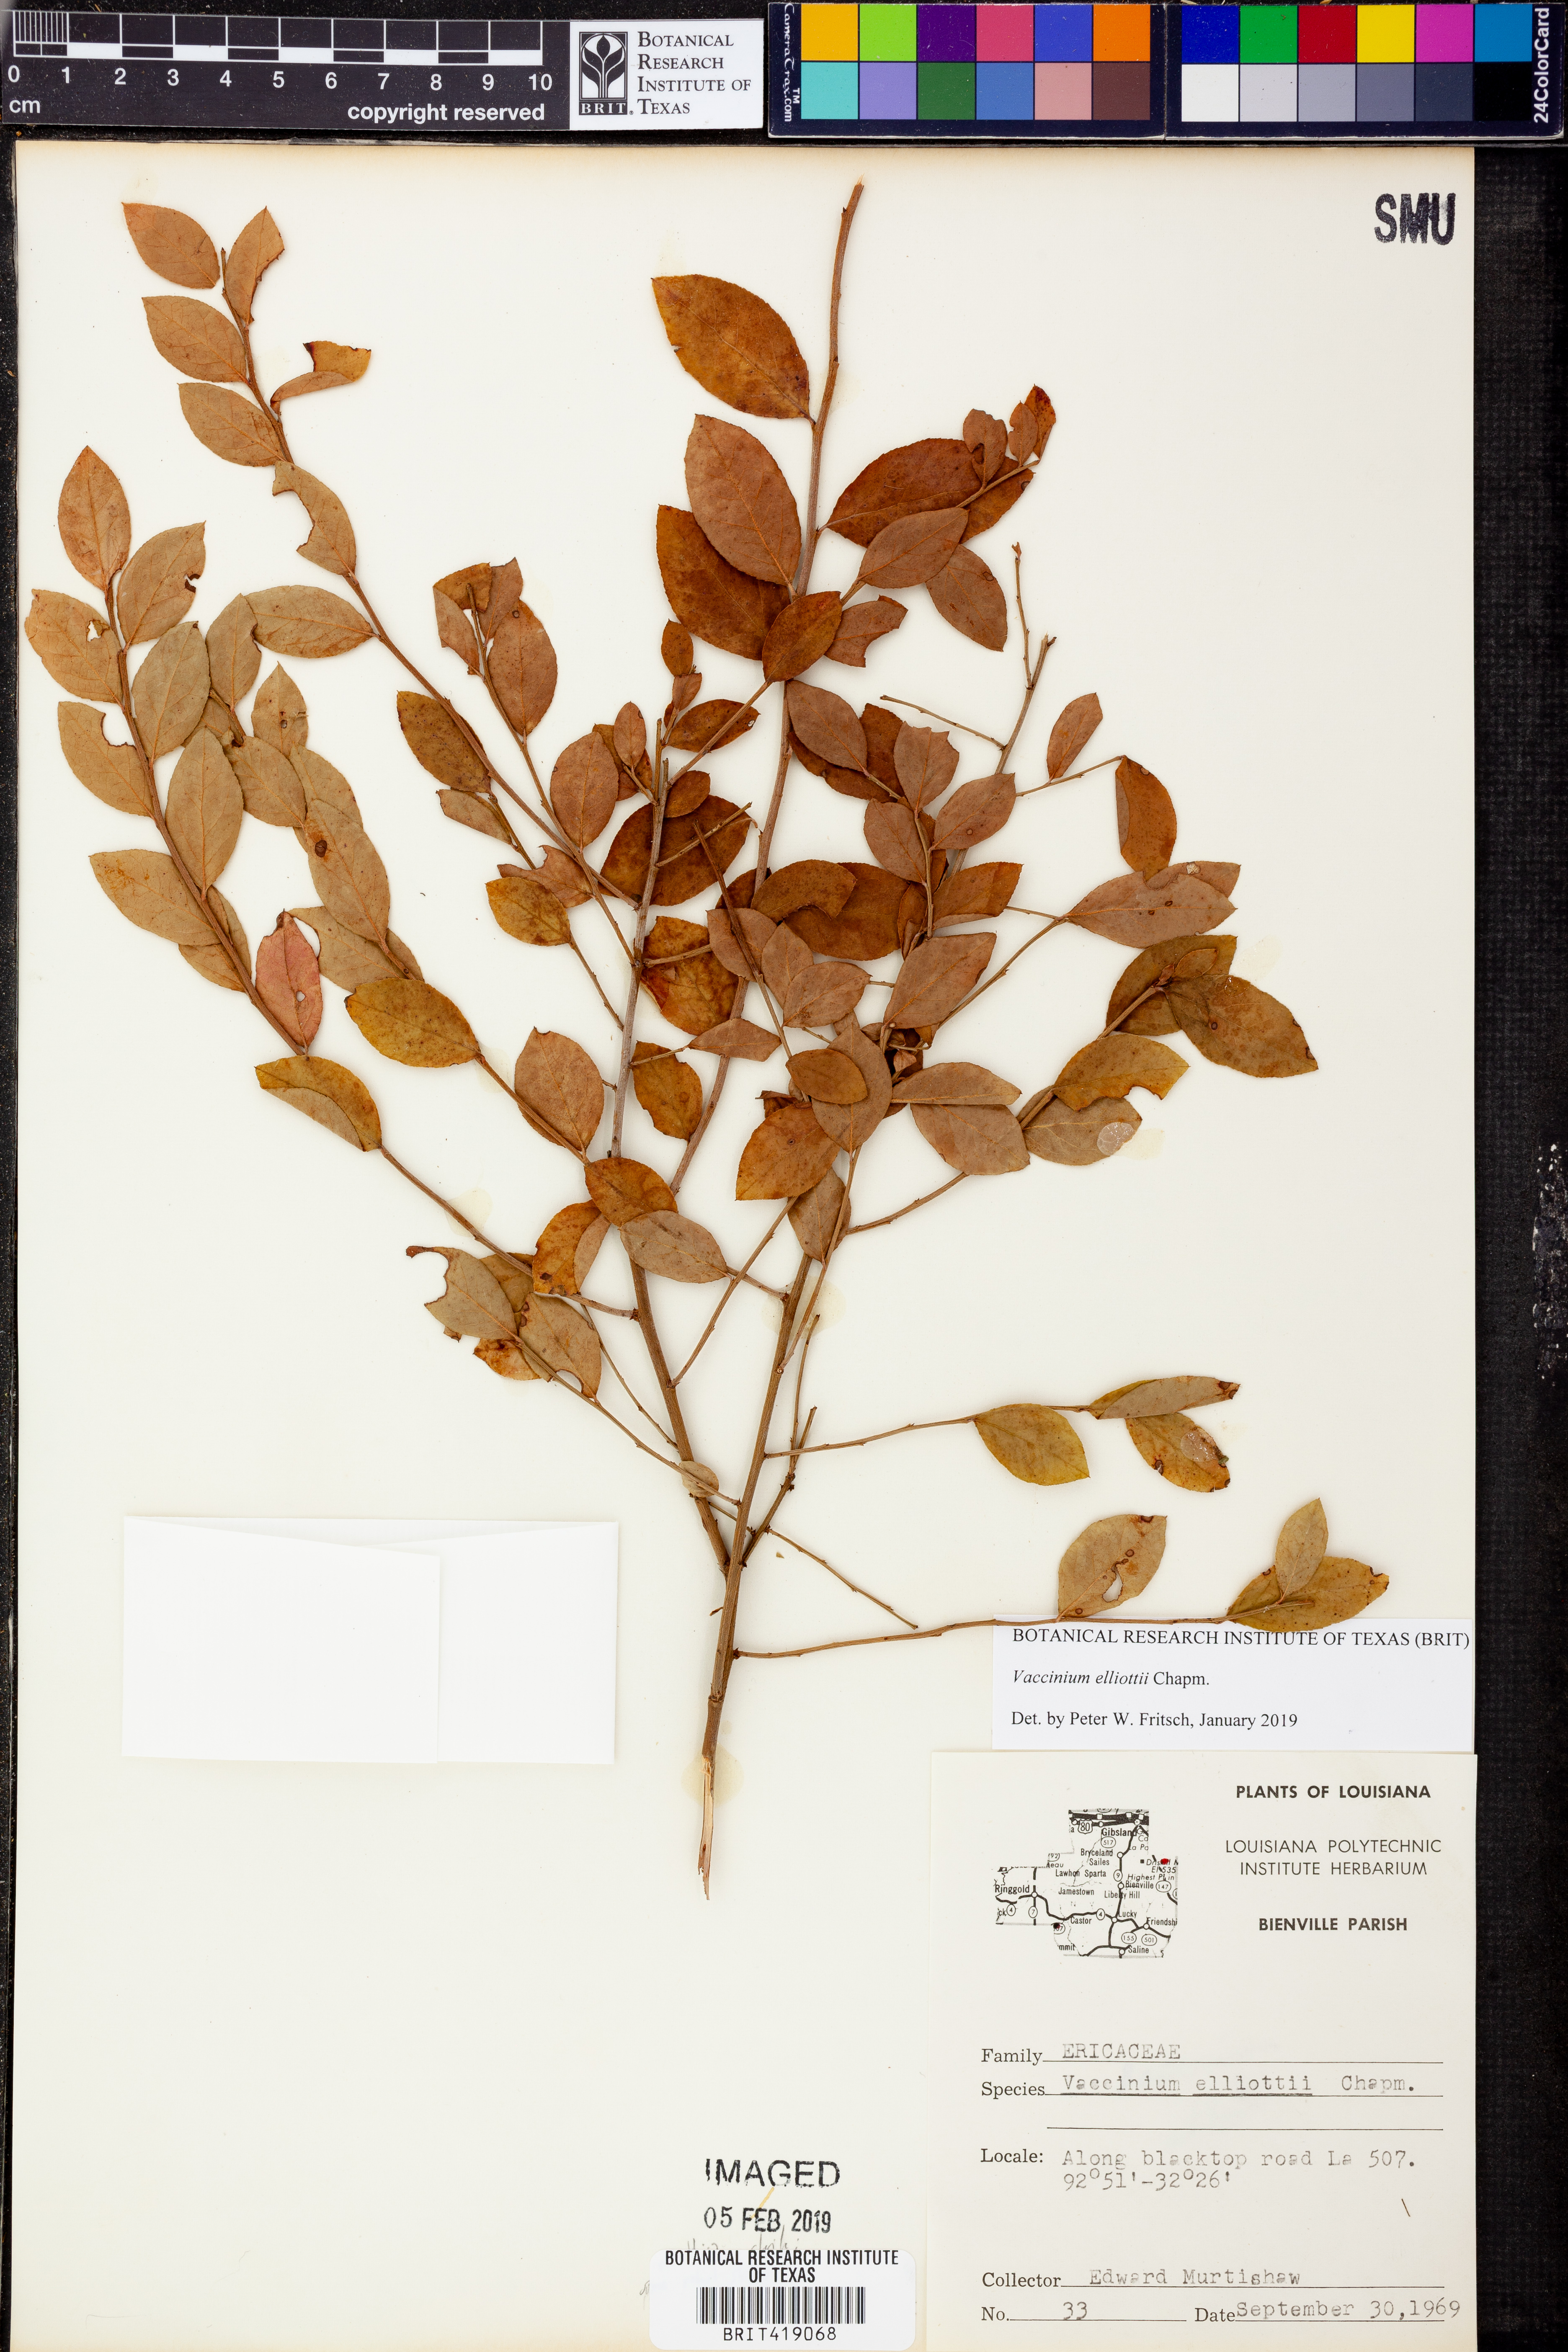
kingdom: Plantae
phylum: Tracheophyta
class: Magnoliopsida
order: Ericales
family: Ericaceae
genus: Vaccinium
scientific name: Vaccinium corymbosum
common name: Blueberry
